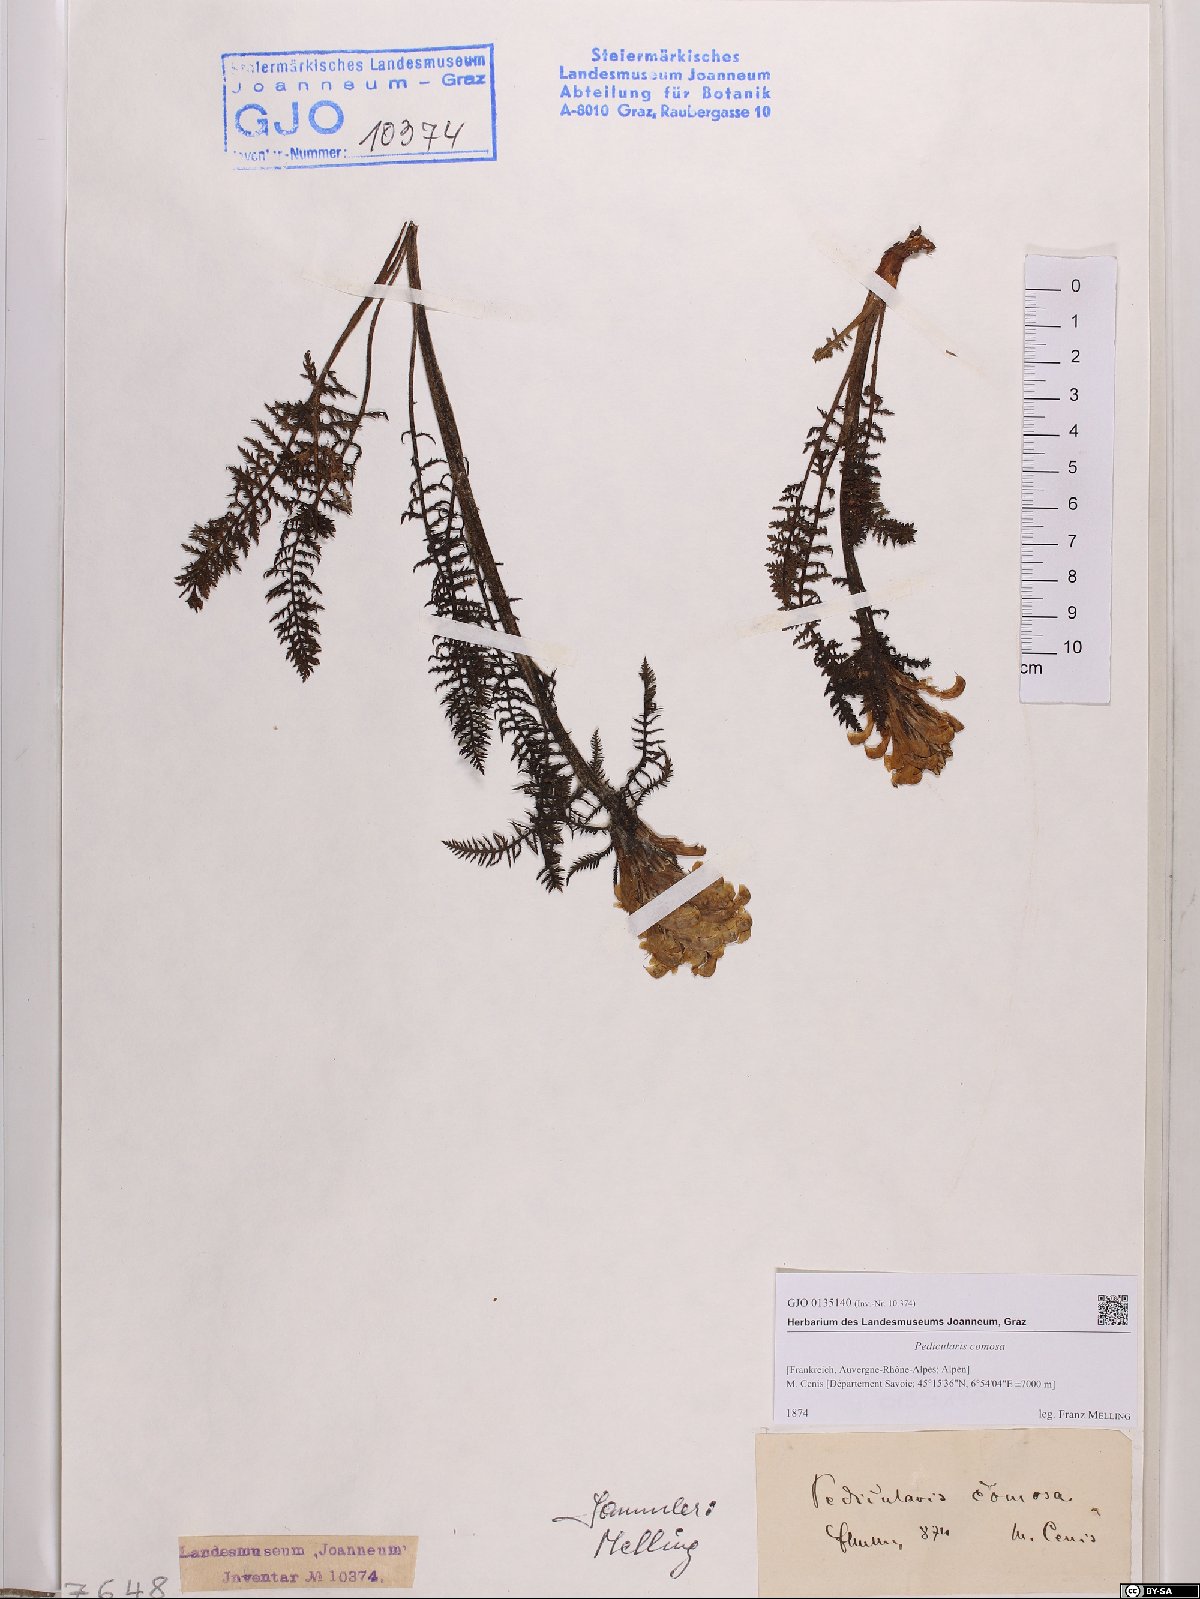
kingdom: Plantae
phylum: Tracheophyta
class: Magnoliopsida
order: Lamiales
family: Orobanchaceae
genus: Pedicularis
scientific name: Pedicularis comosa
